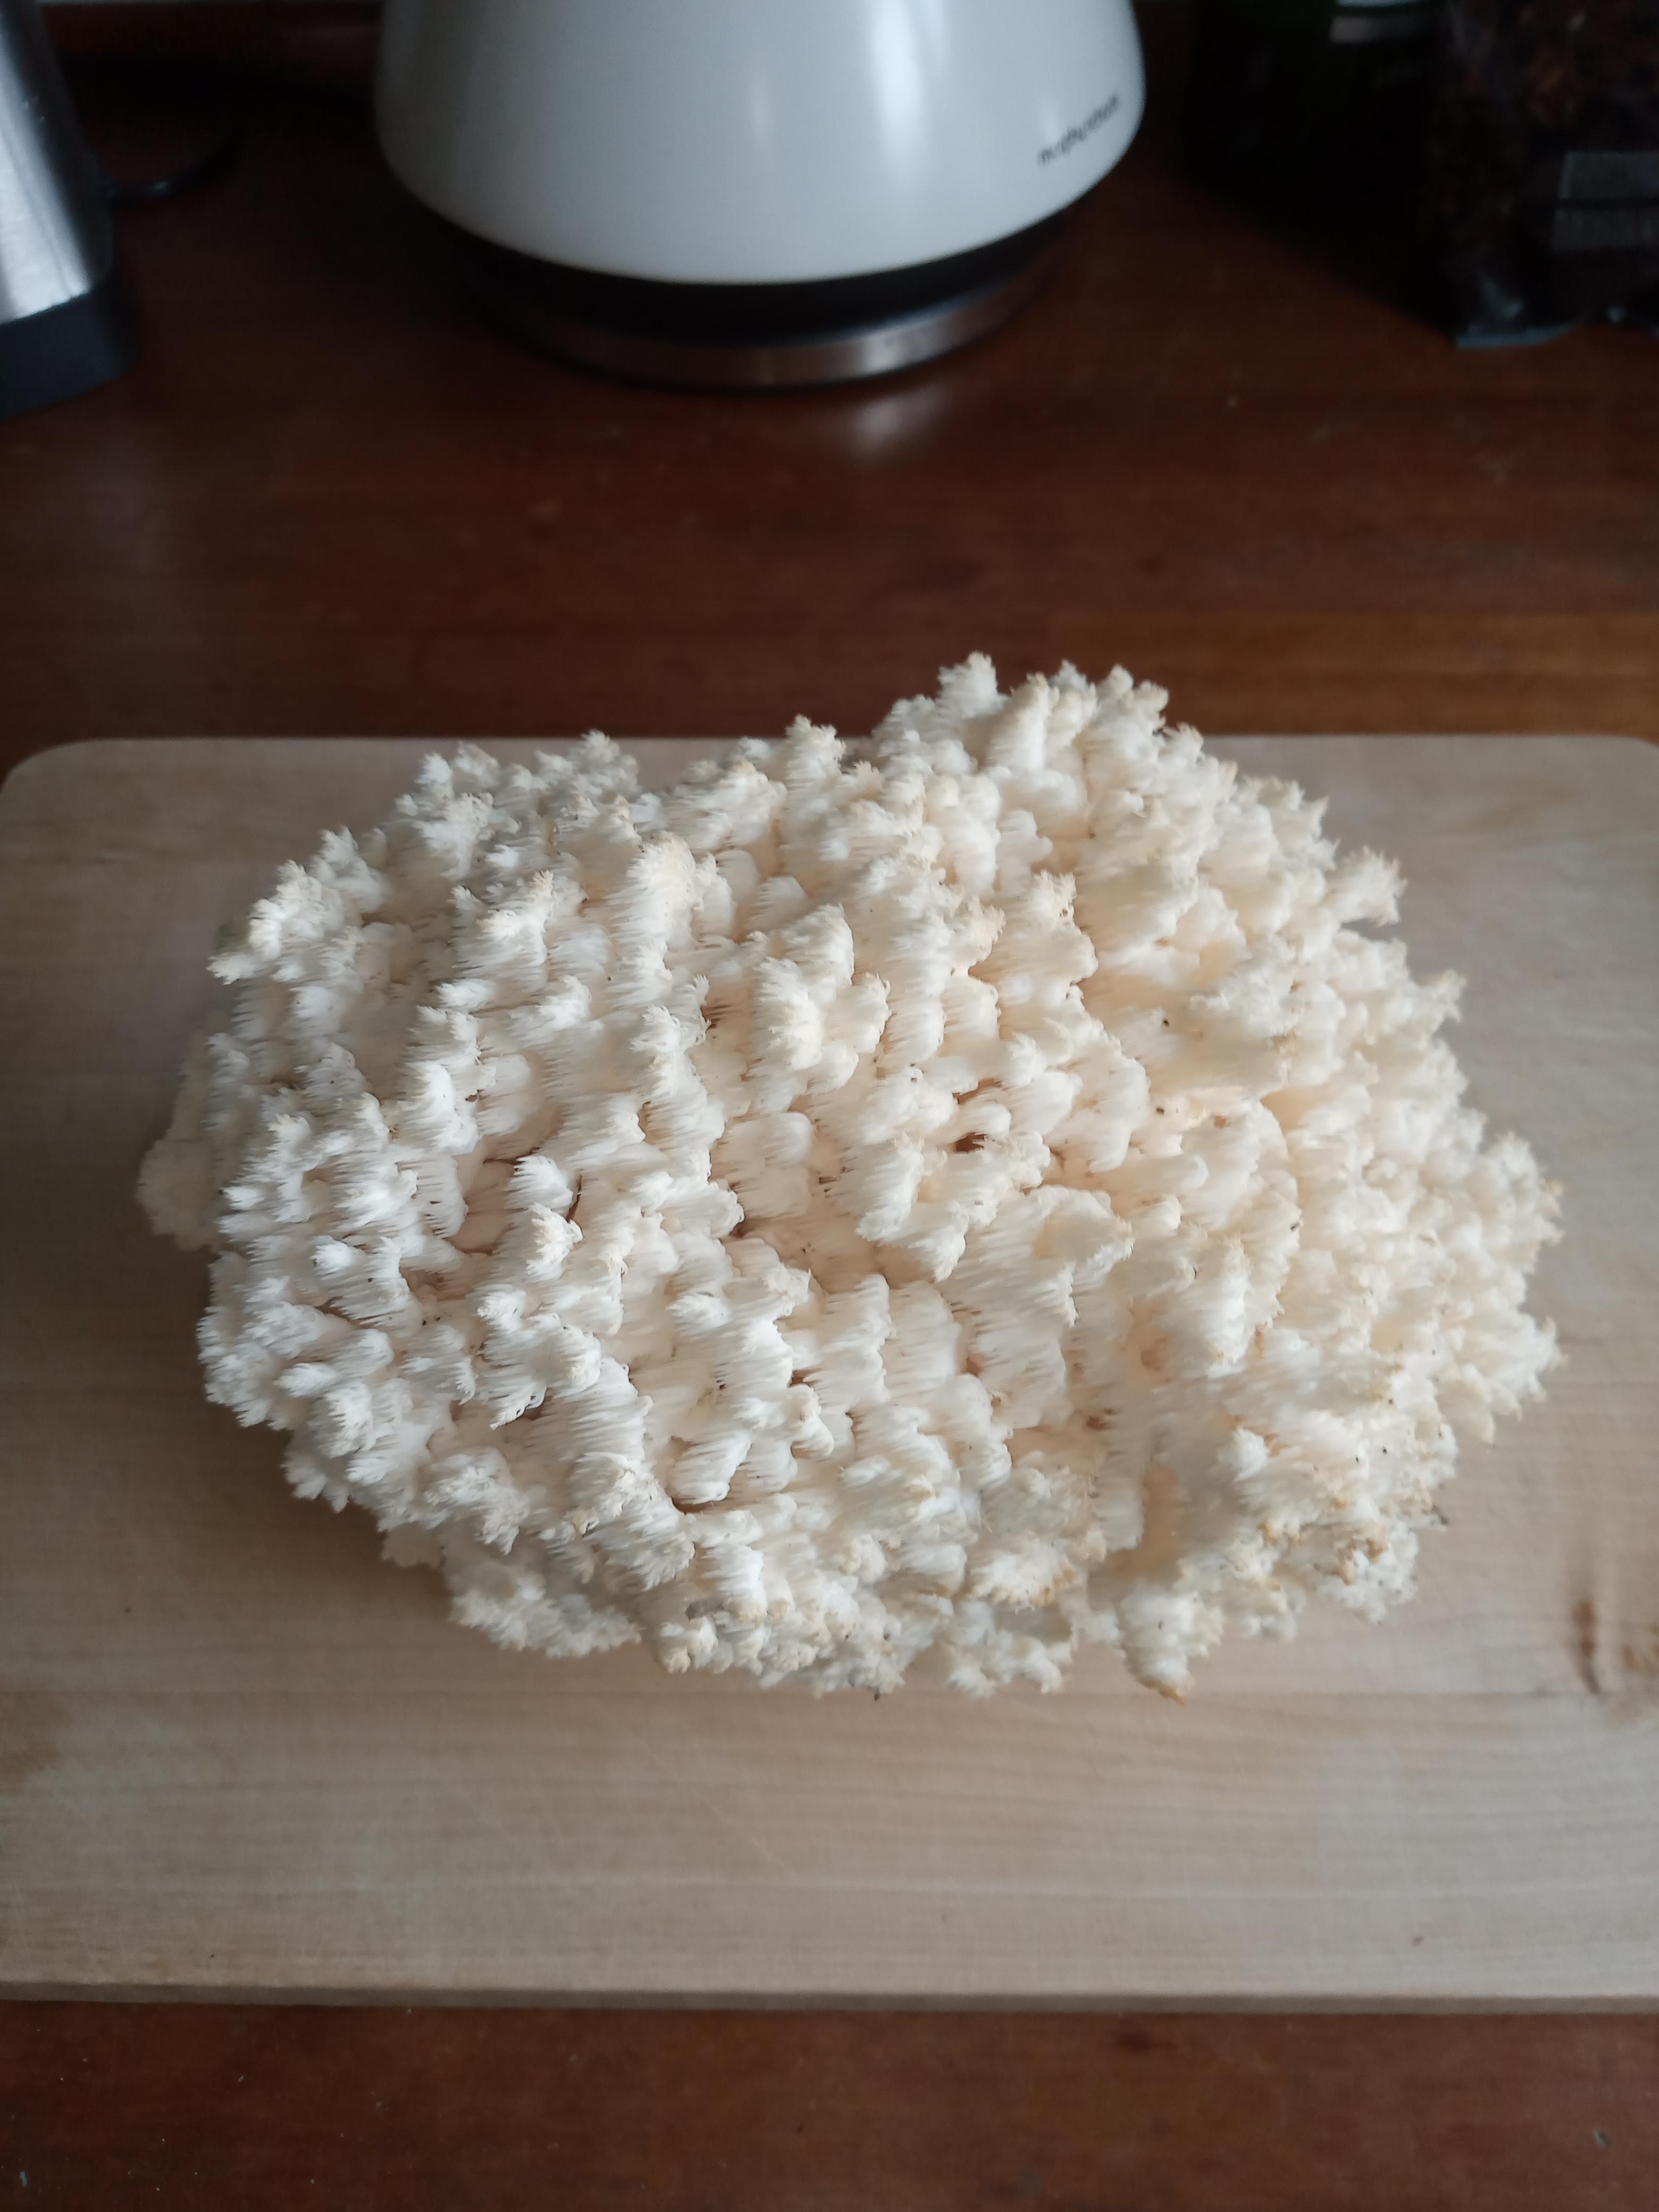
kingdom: Fungi
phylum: Basidiomycota
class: Agaricomycetes
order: Russulales
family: Hericiaceae
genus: Hericium
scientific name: Hericium coralloides
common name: koralpigsvamp
